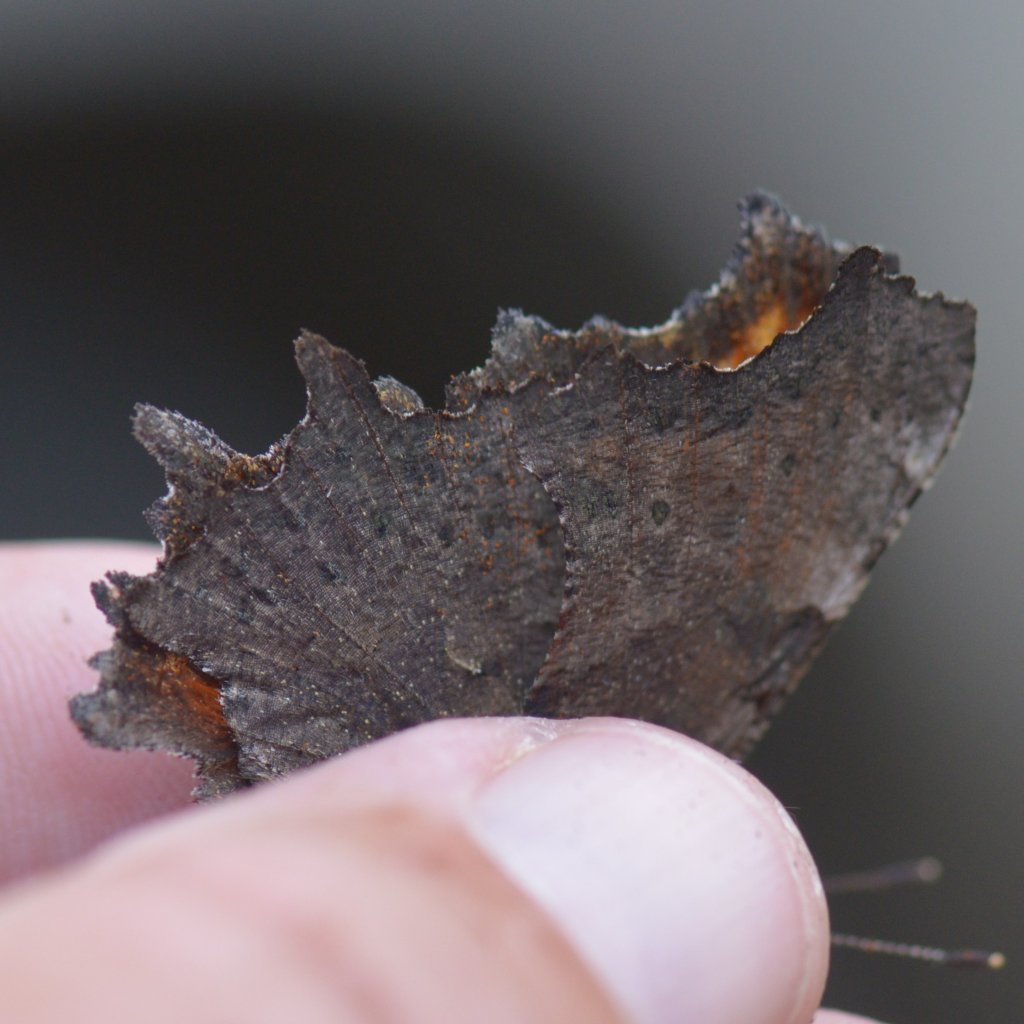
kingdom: Animalia
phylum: Arthropoda
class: Insecta
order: Lepidoptera
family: Nymphalidae
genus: Polygonia
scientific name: Polygonia faunus
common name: Green Comma
